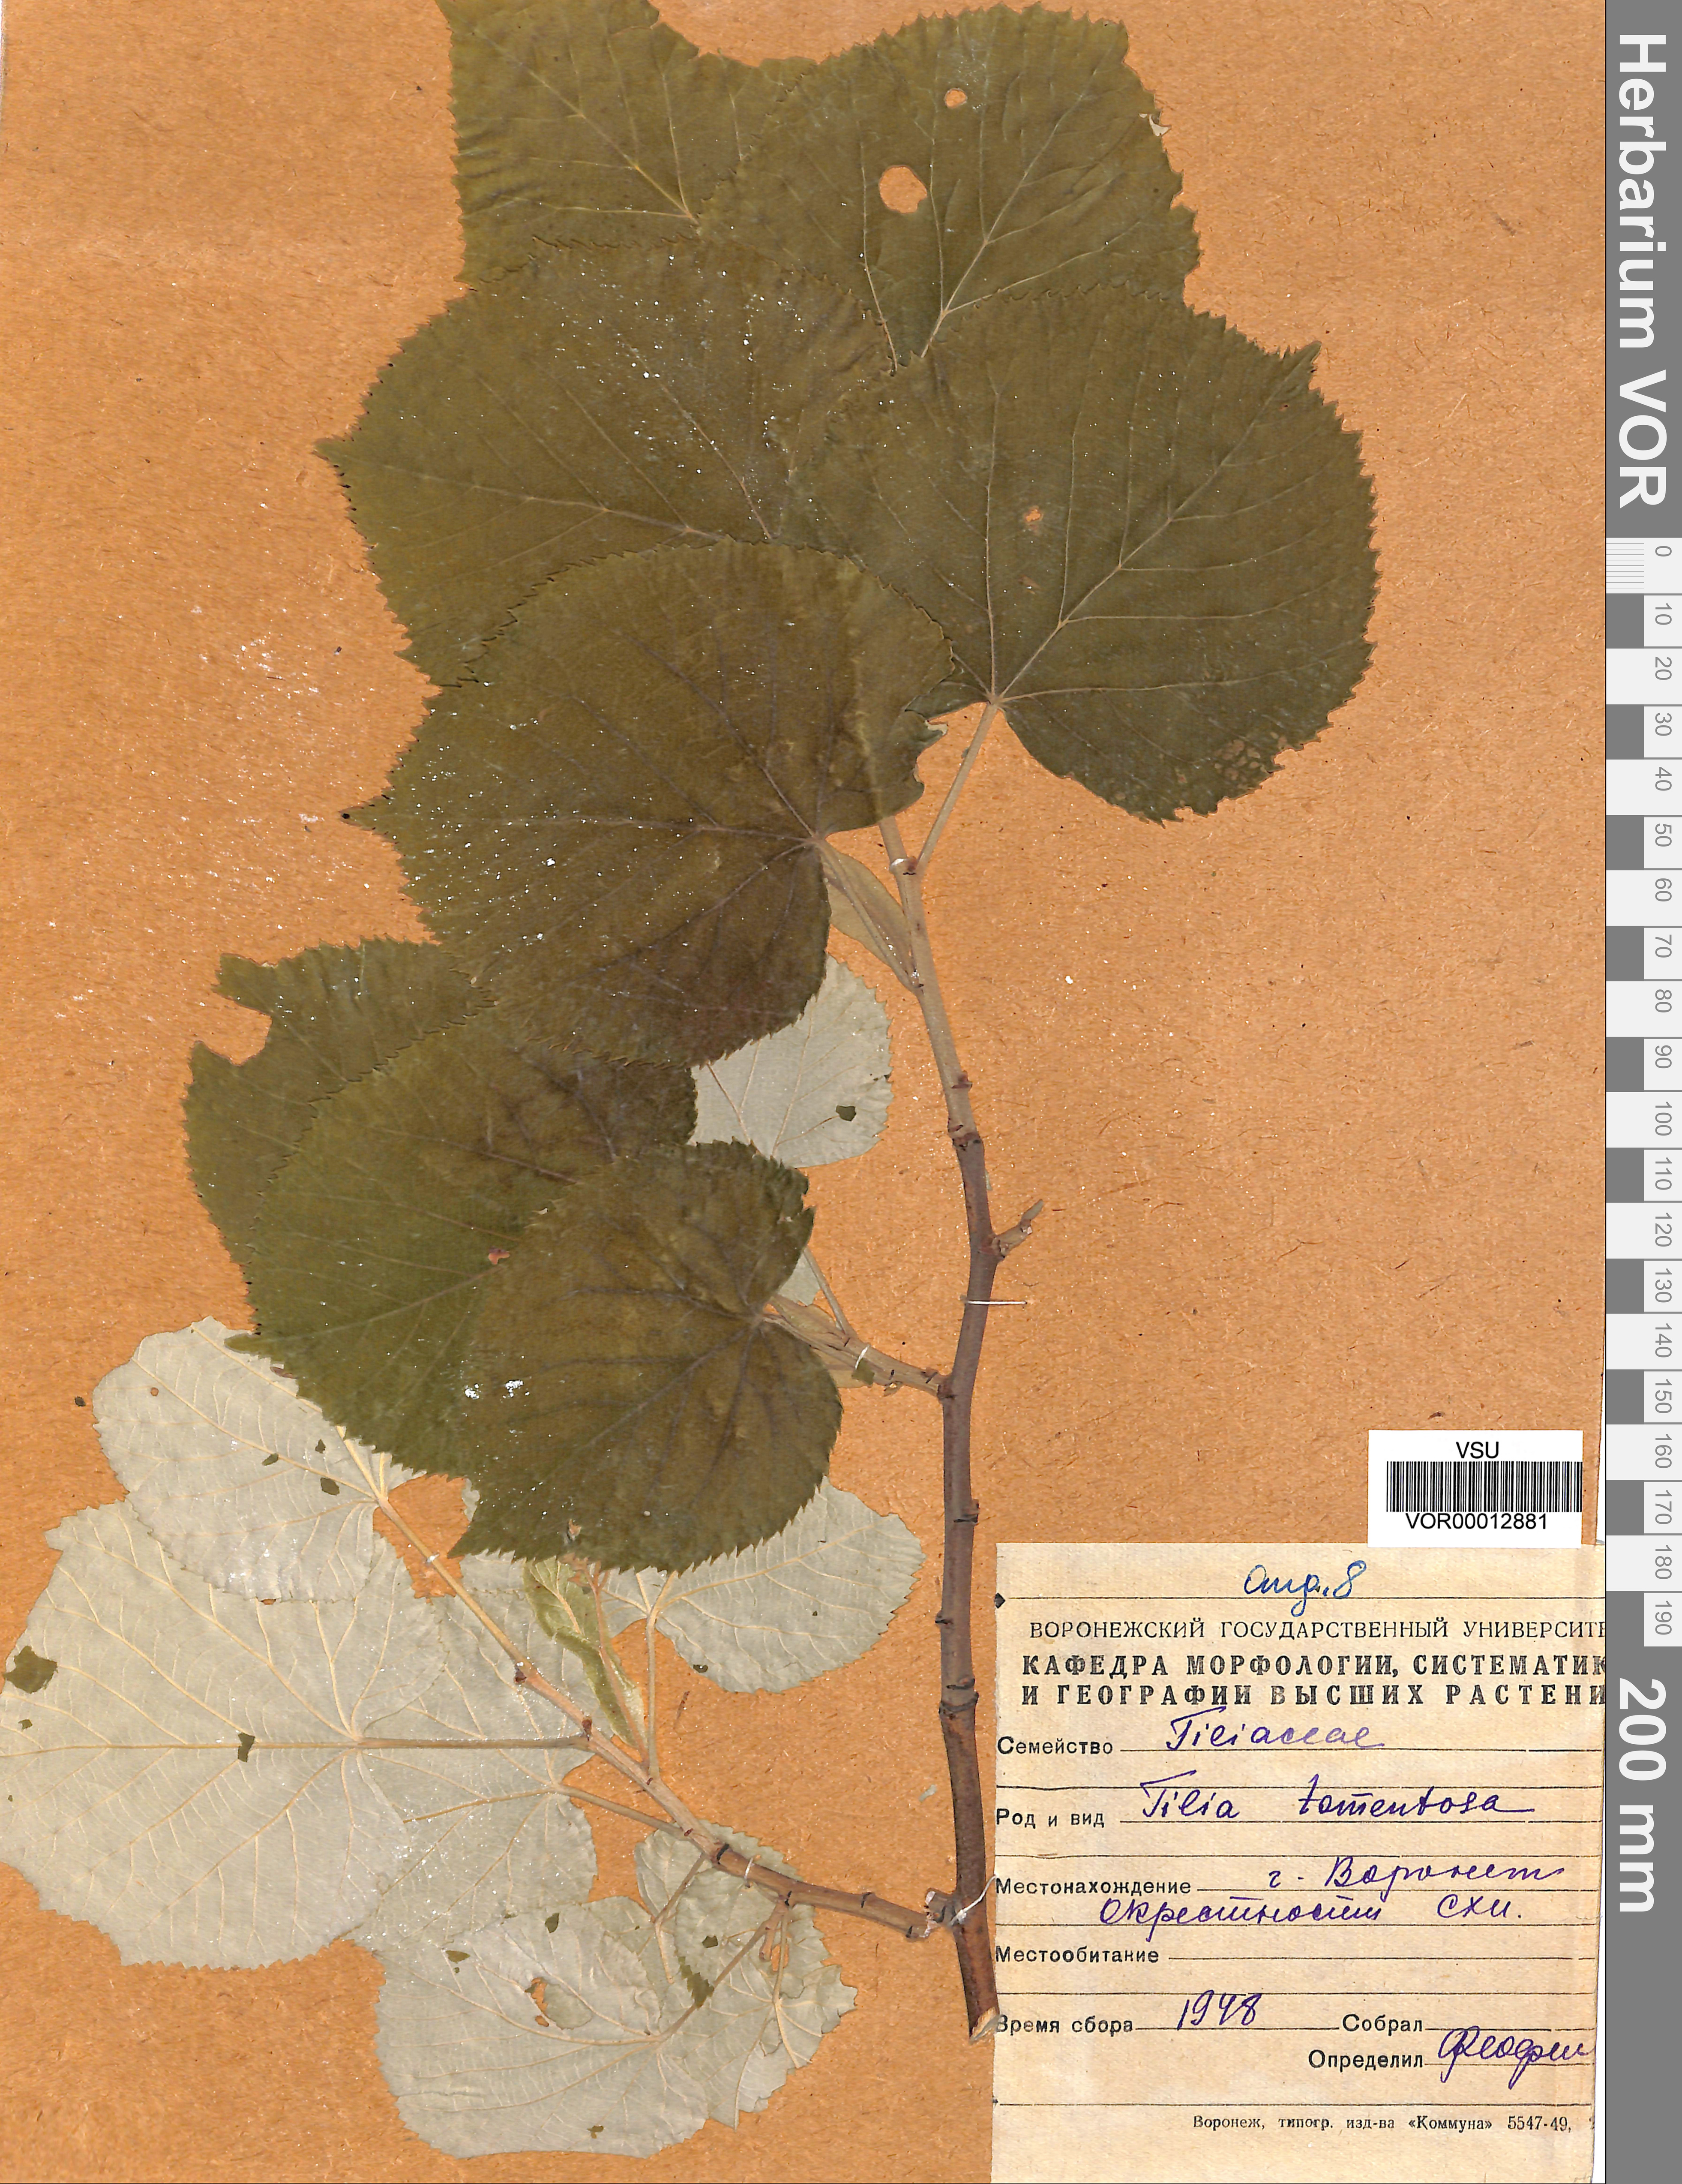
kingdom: Plantae
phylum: Tracheophyta
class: Magnoliopsida
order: Malvales
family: Malvaceae
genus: Tilia
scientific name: Tilia tomentosa
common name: Silver lime
